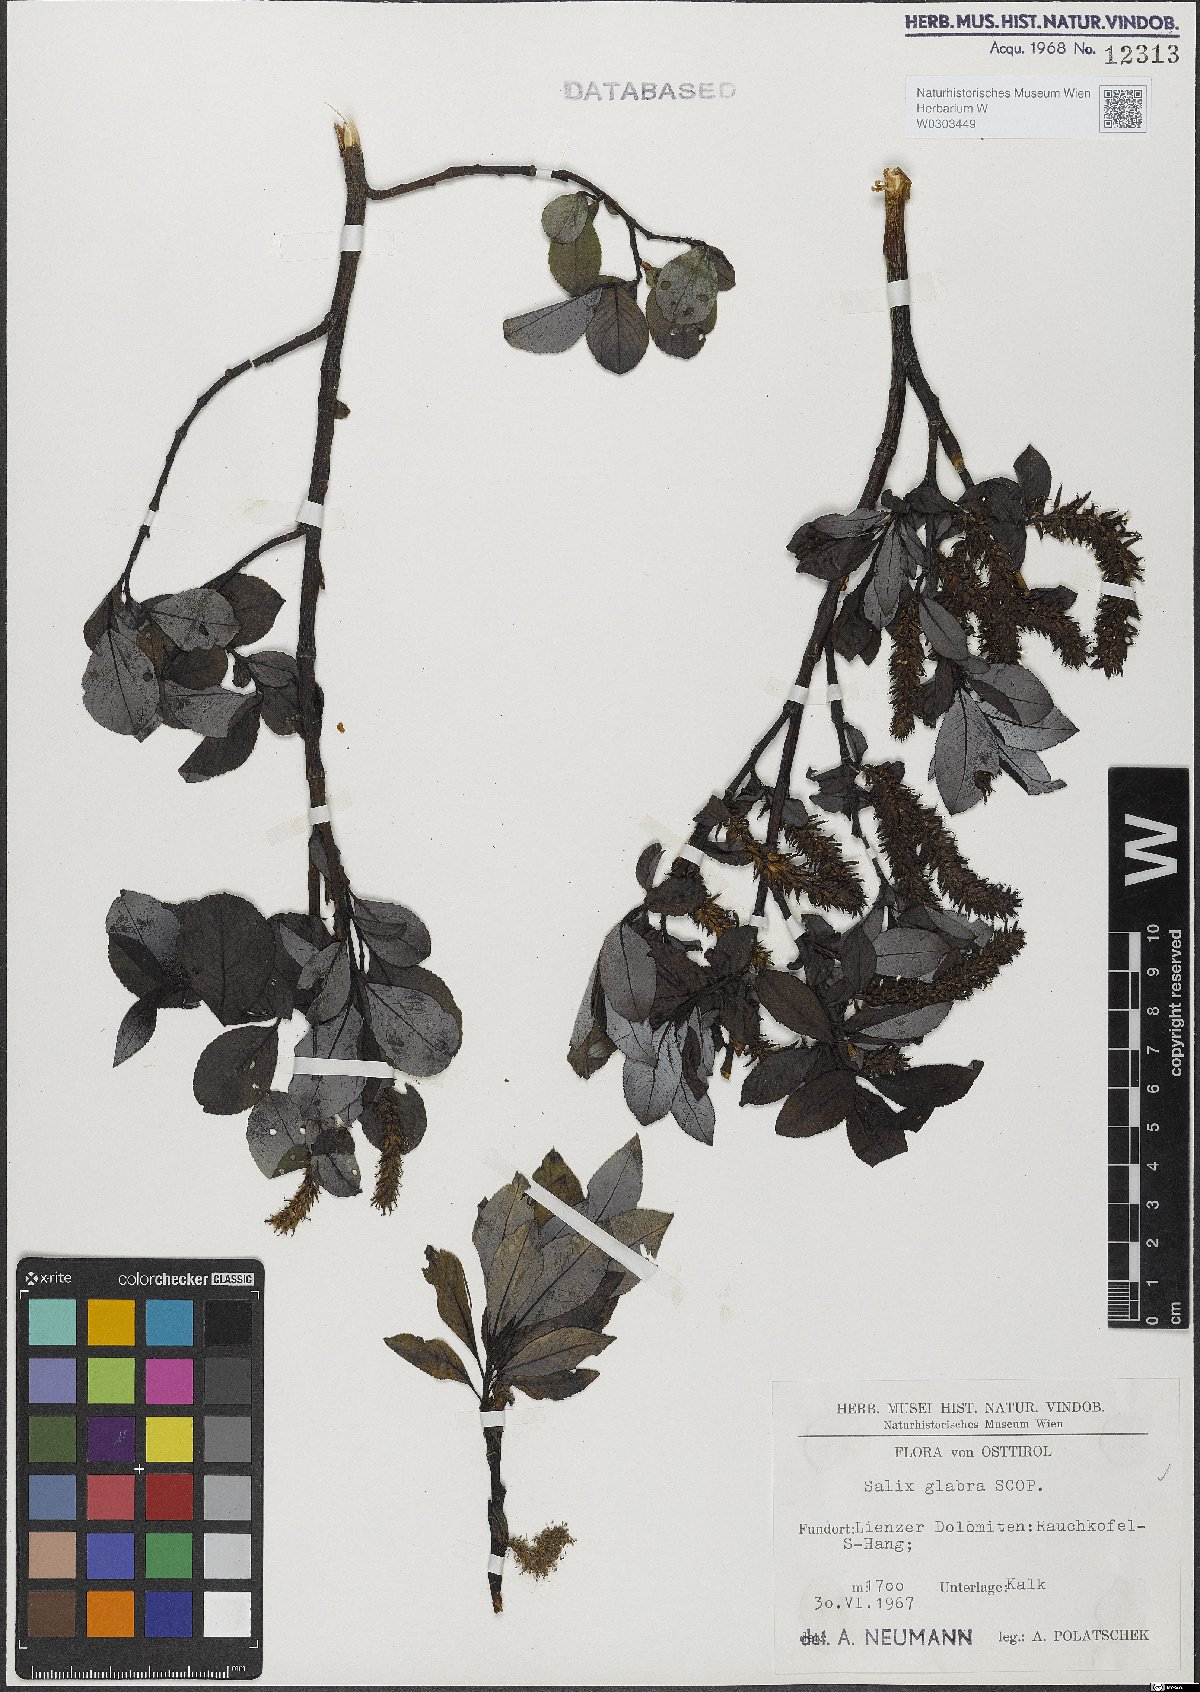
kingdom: Plantae
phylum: Tracheophyta
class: Magnoliopsida
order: Malpighiales
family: Salicaceae
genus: Salix
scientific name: Salix glabra
